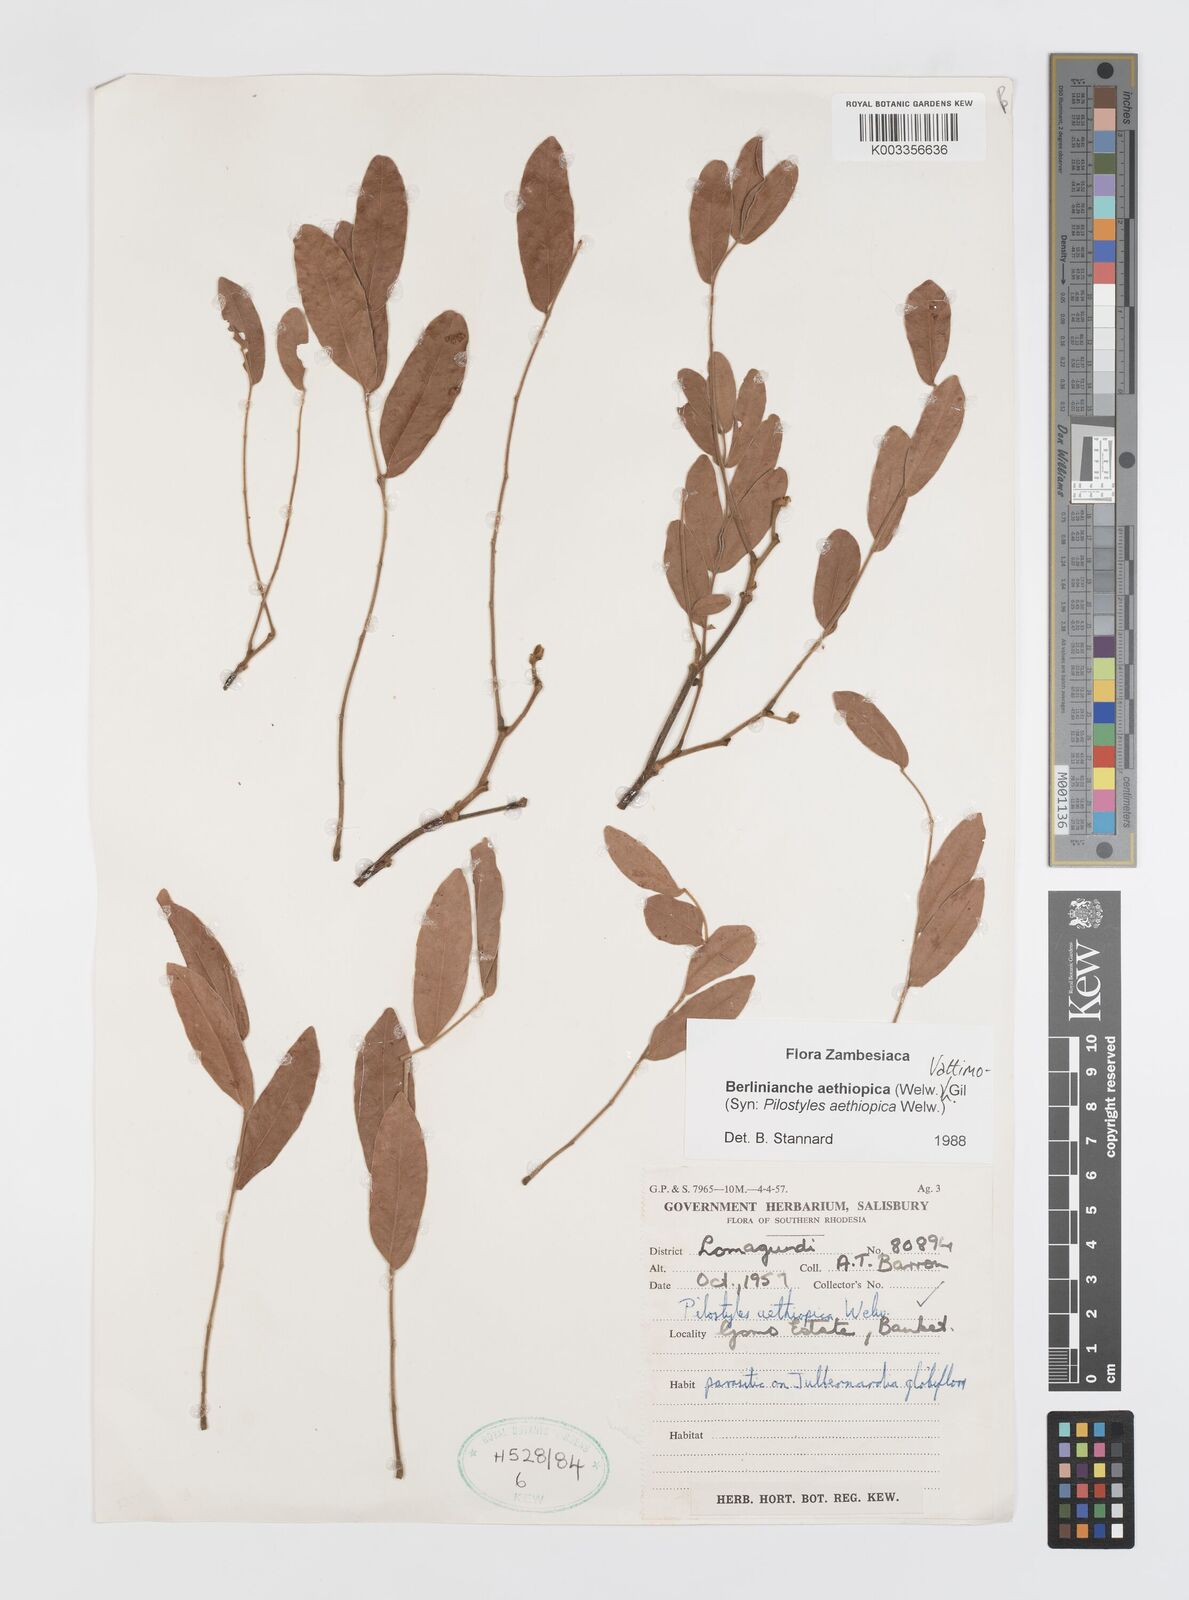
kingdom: Plantae
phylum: Tracheophyta
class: Magnoliopsida
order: Cucurbitales
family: Apodanthaceae
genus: Pilostyles
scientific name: Pilostyles aethiopica
